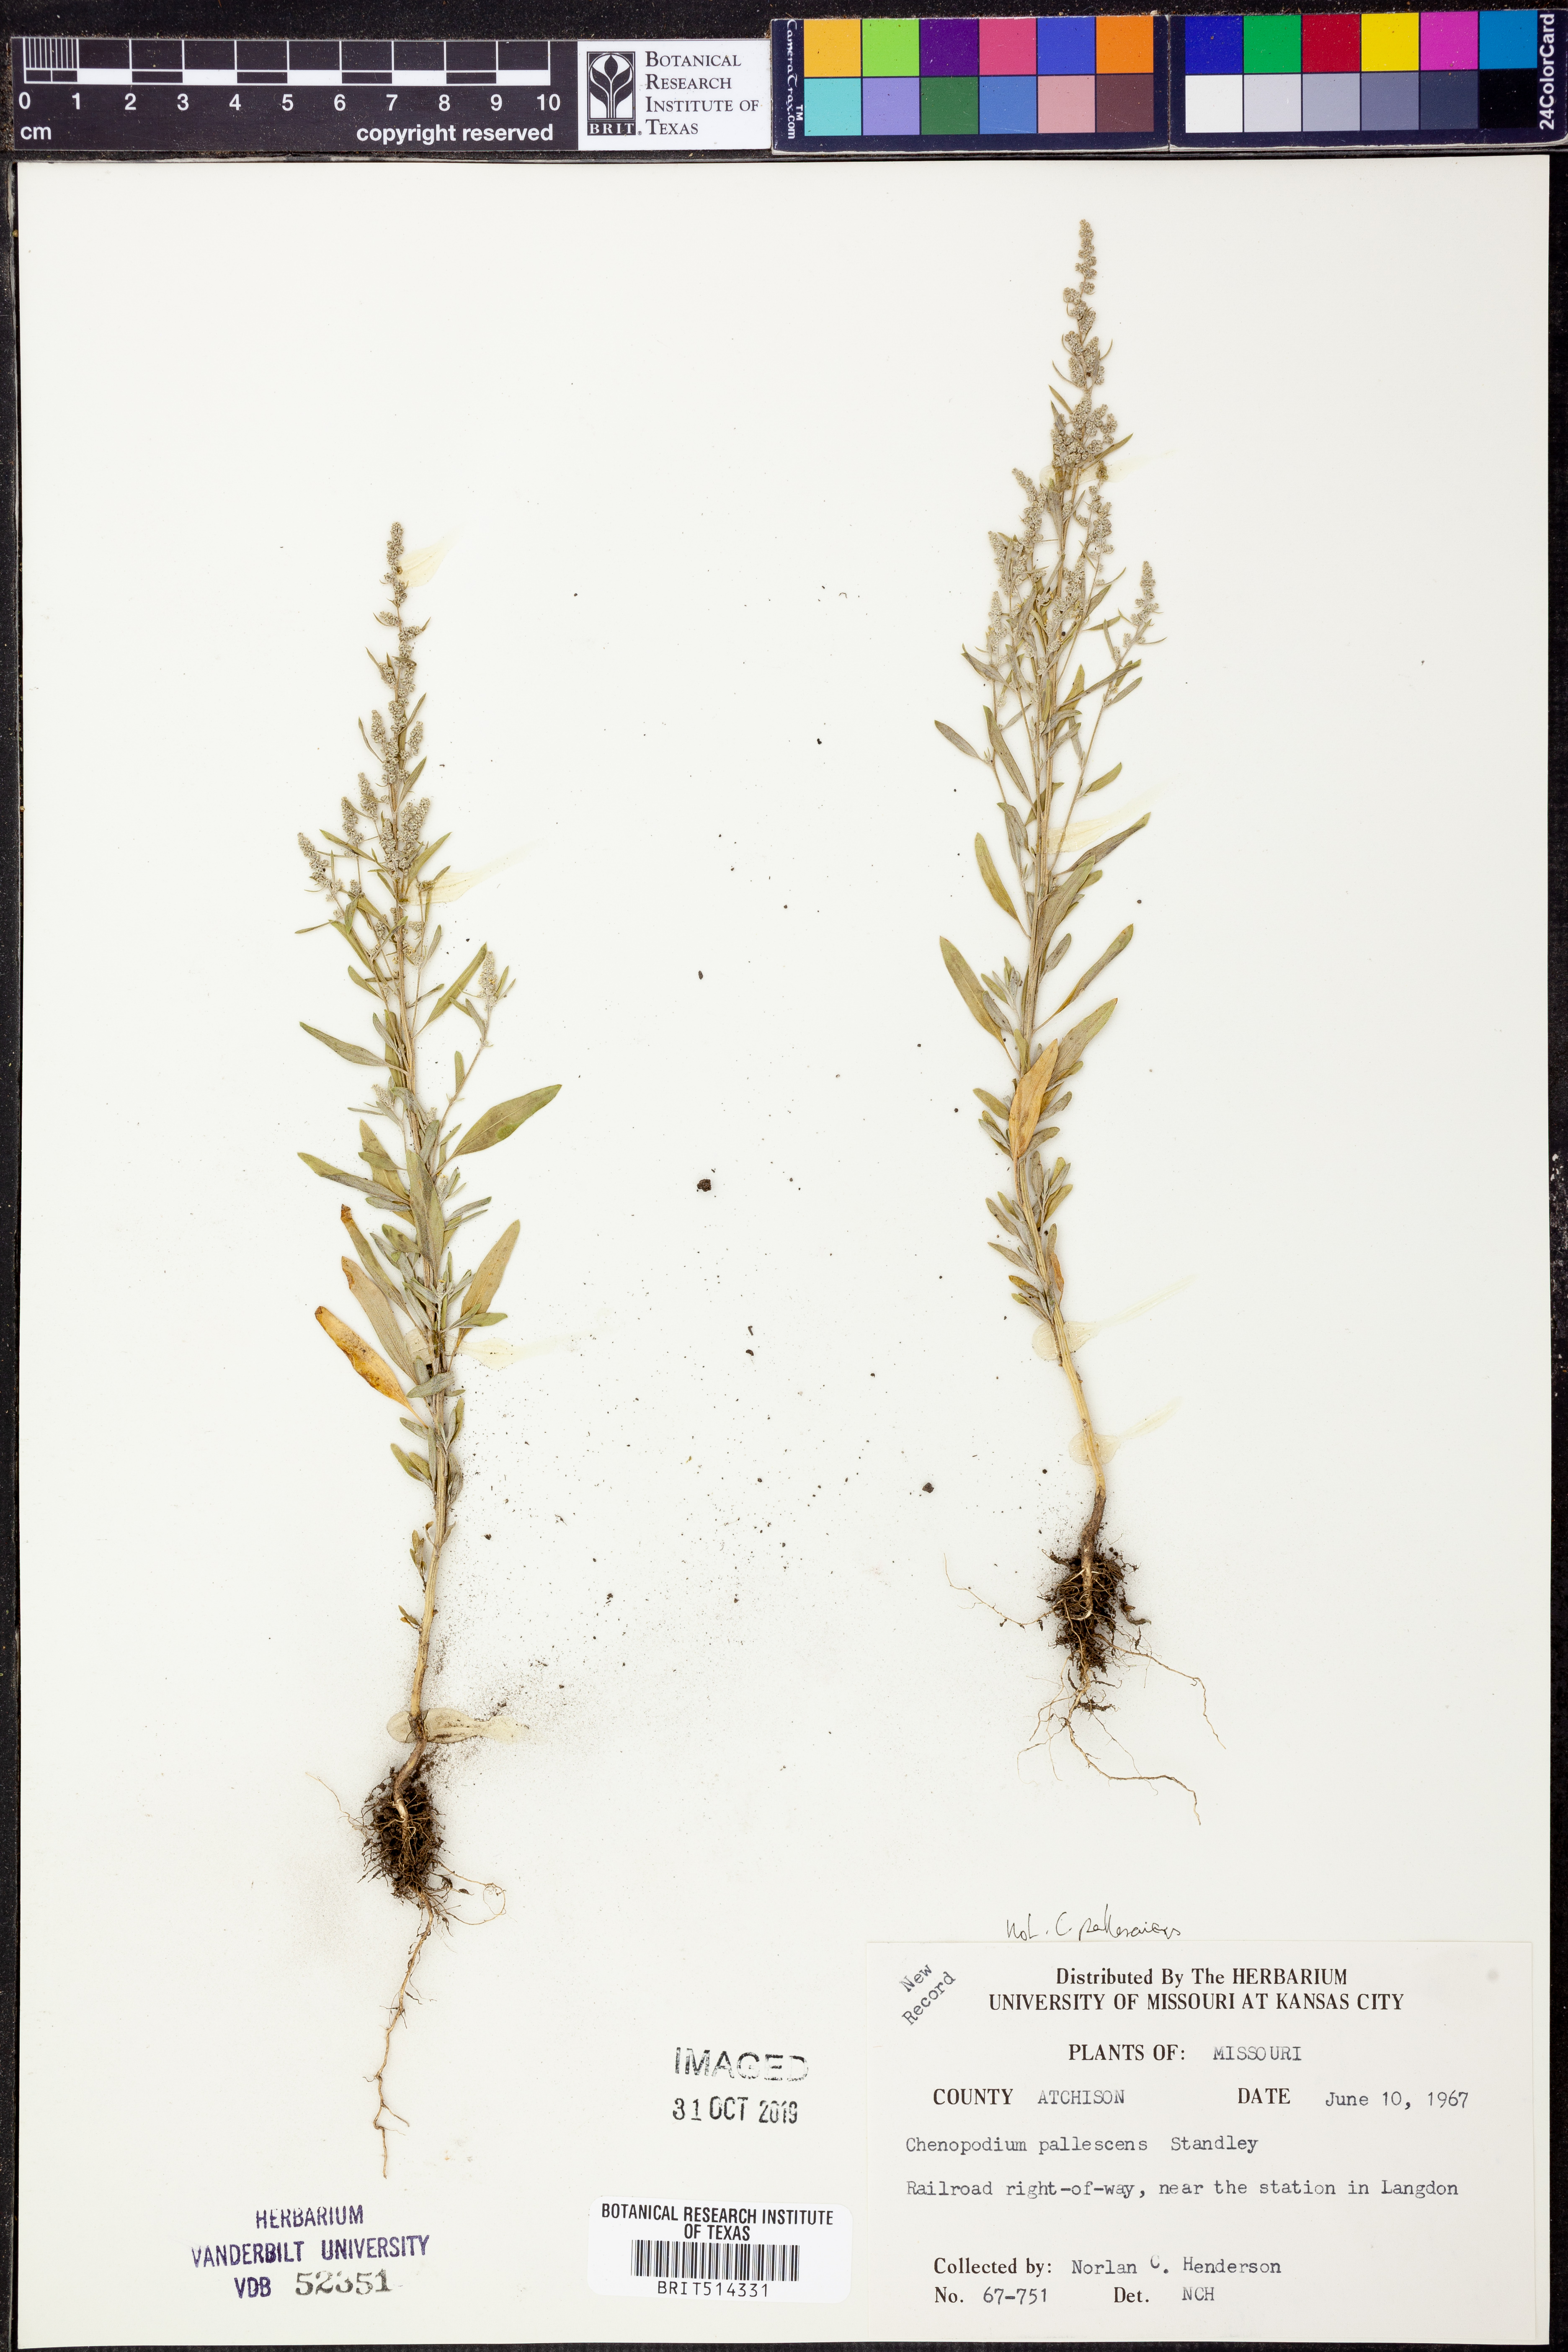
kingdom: Plantae
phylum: Tracheophyta
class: Magnoliopsida
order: Caryophyllales
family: Amaranthaceae
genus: Chenopodium
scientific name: Chenopodium pallescens
